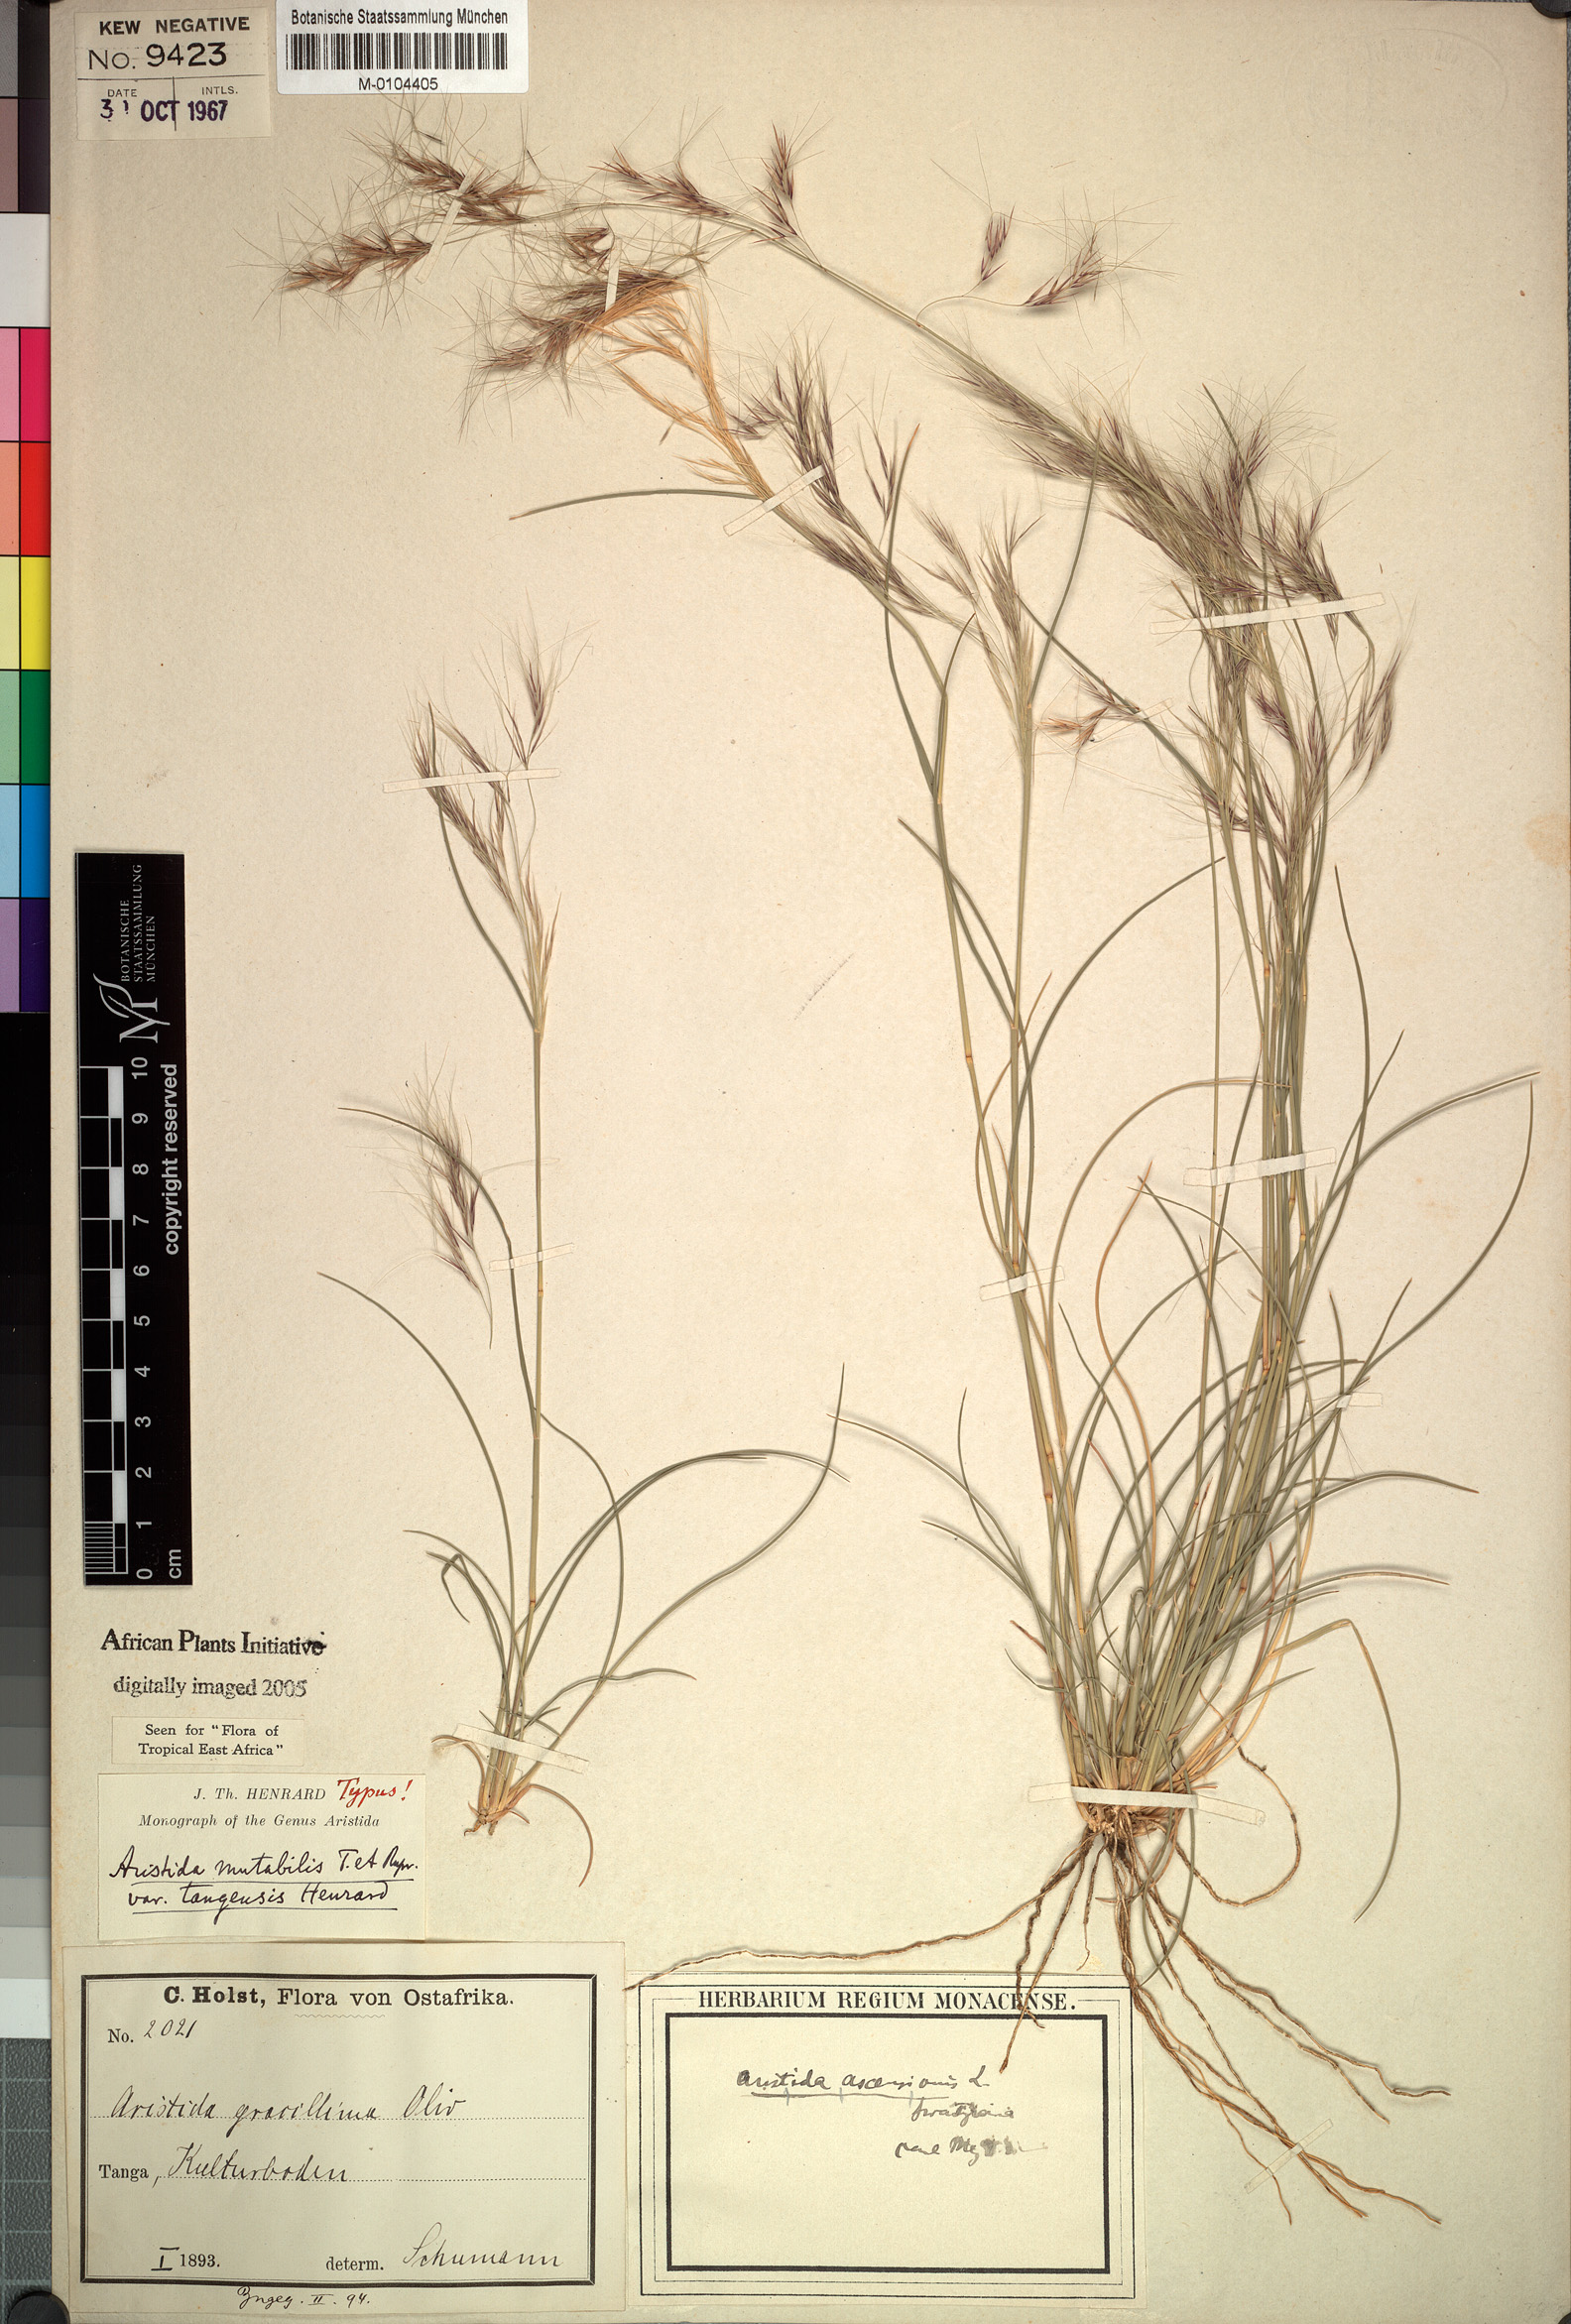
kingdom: Plantae
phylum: Tracheophyta
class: Liliopsida
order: Poales
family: Poaceae
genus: Aristida
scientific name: Aristida mutabilis
